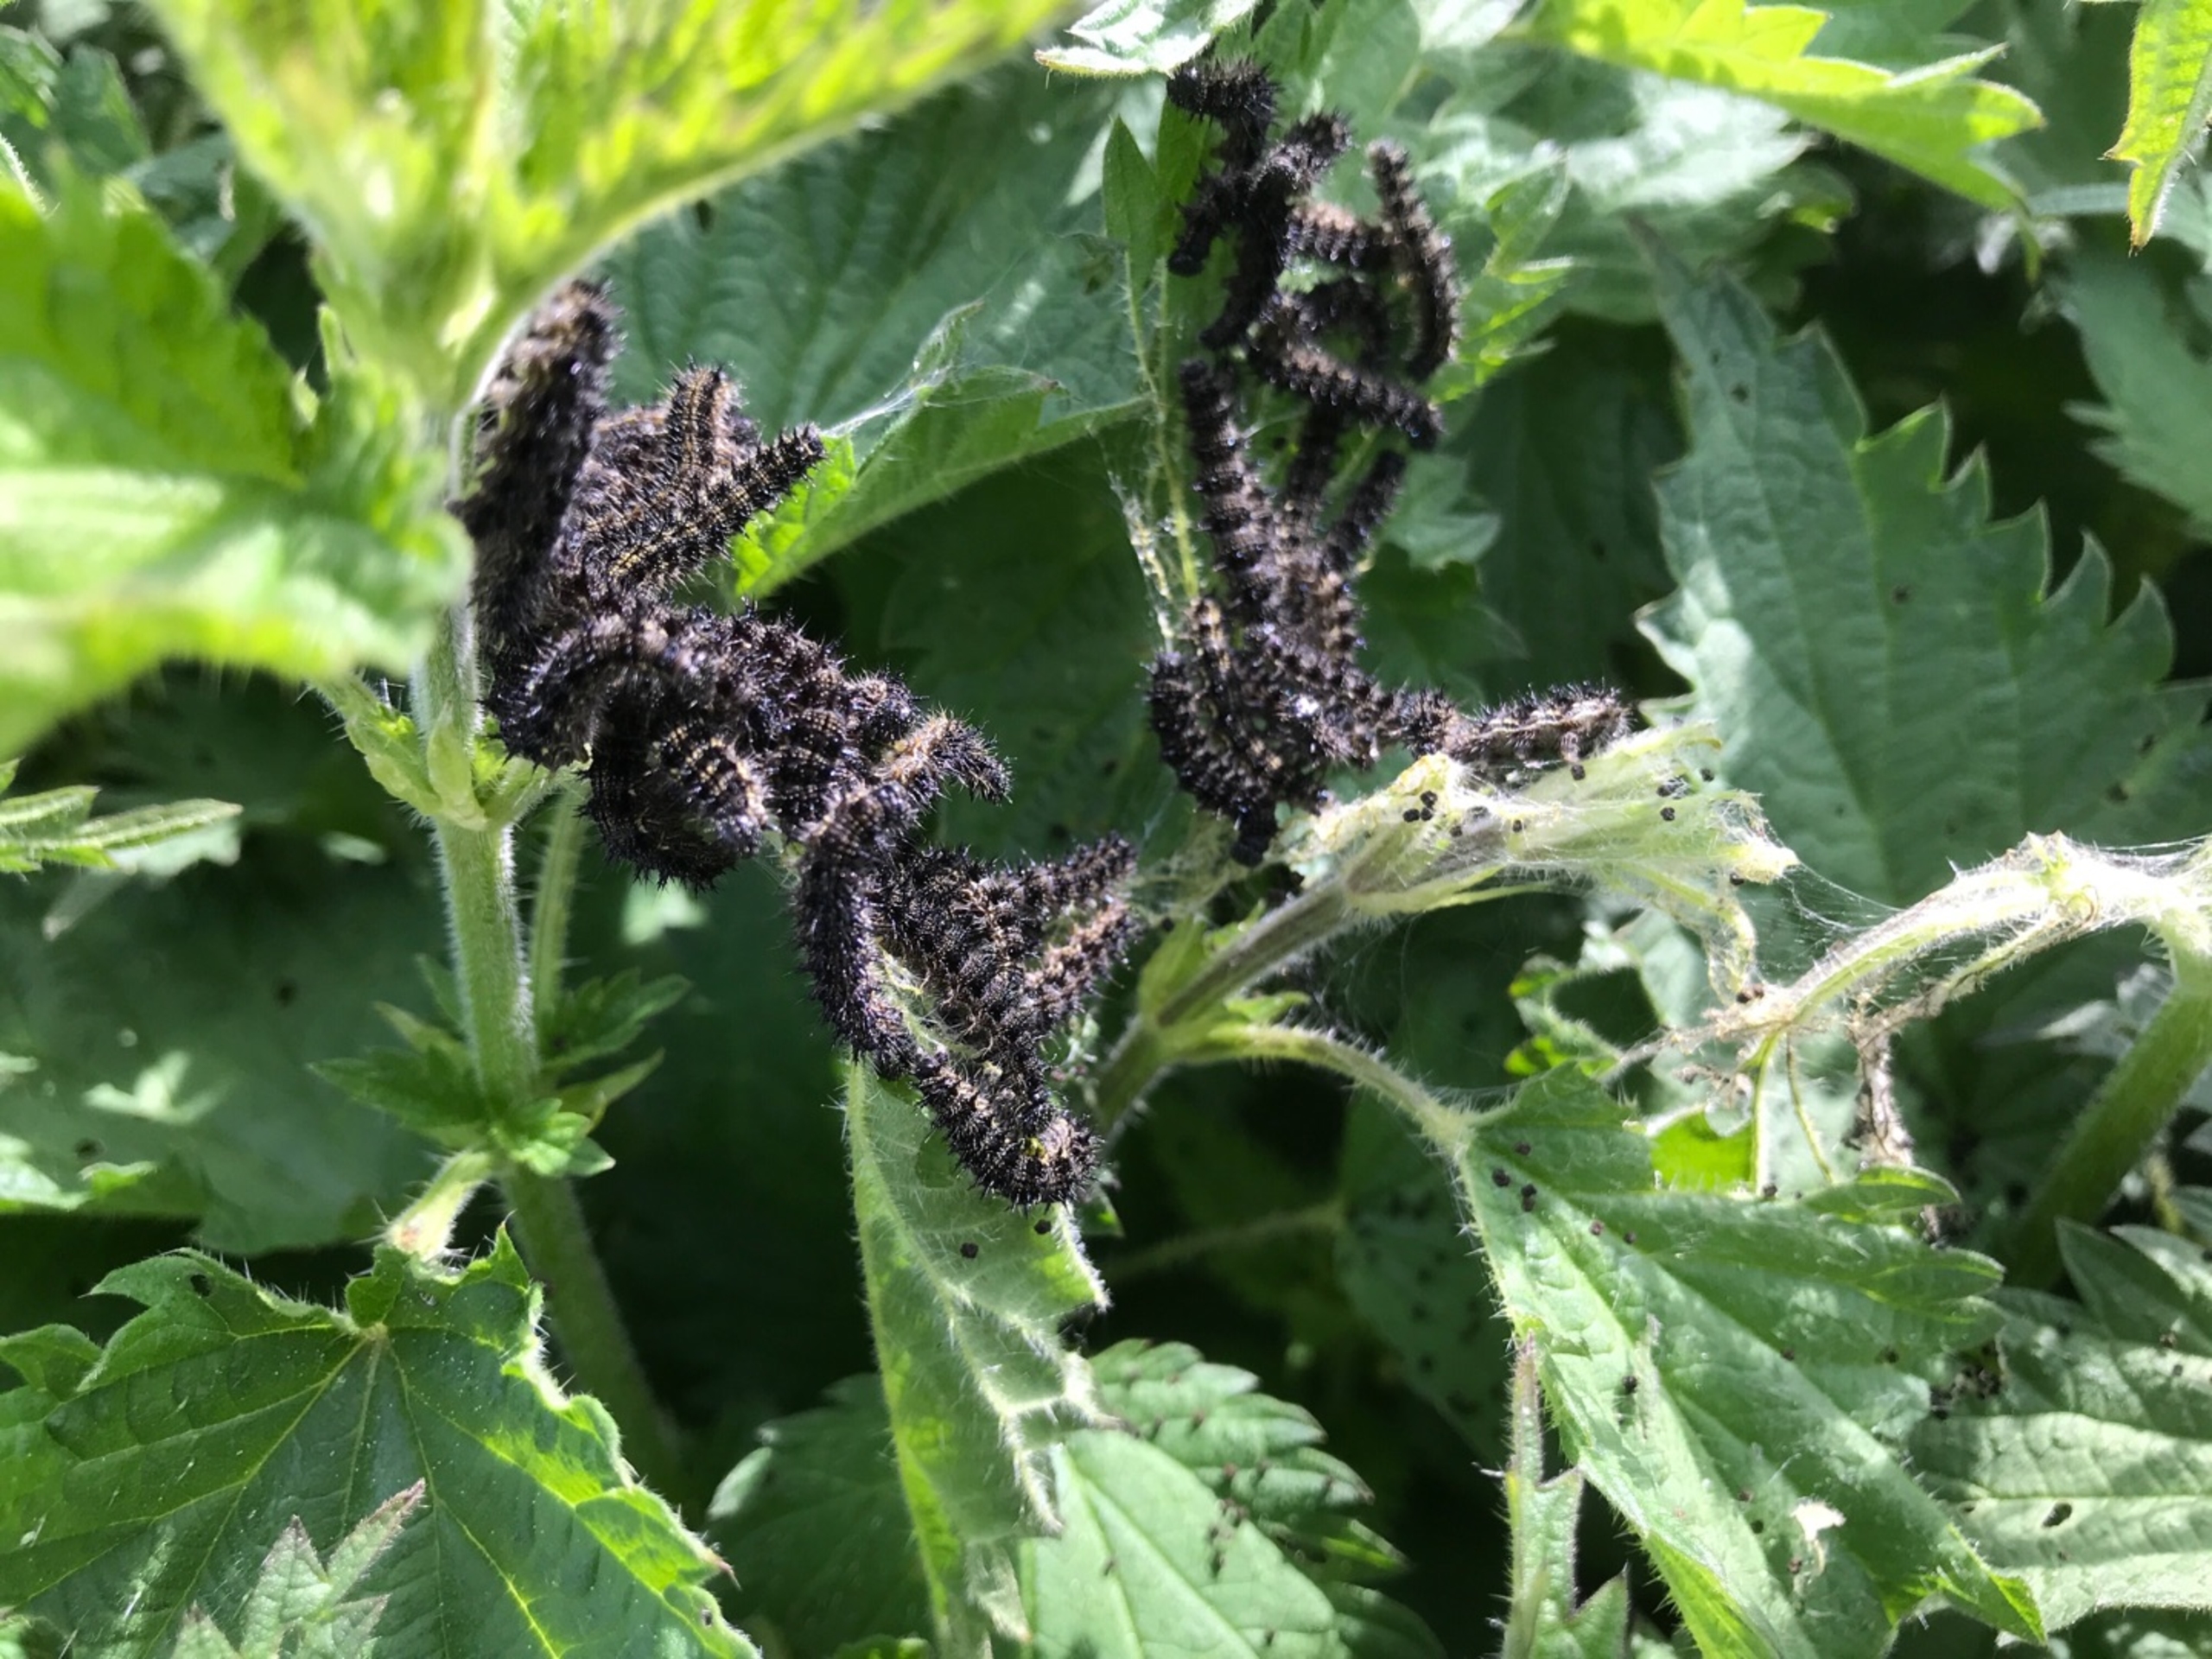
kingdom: Animalia
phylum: Arthropoda
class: Insecta
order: Lepidoptera
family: Nymphalidae
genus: Aglais
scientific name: Aglais urticae
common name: Nældens takvinge
